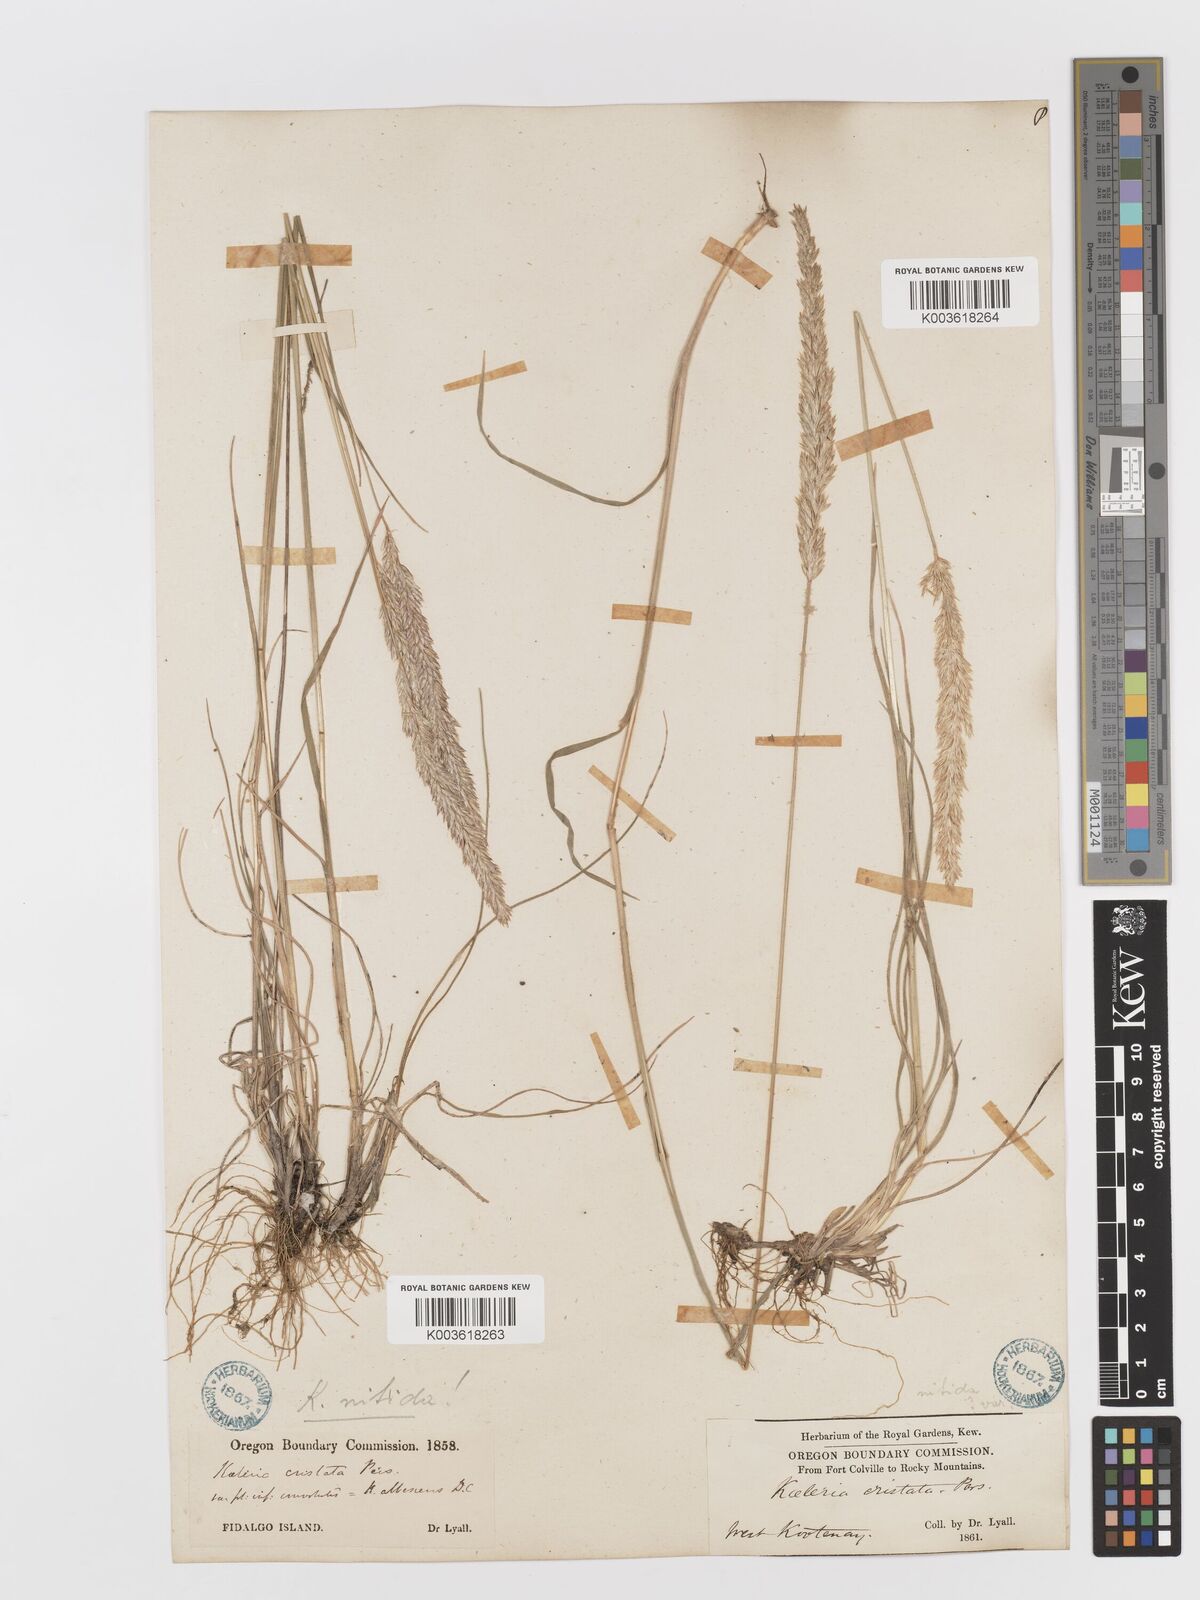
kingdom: Plantae
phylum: Tracheophyta
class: Liliopsida
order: Poales
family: Poaceae
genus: Koeleria
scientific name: Koeleria macrantha
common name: Crested hair-grass
